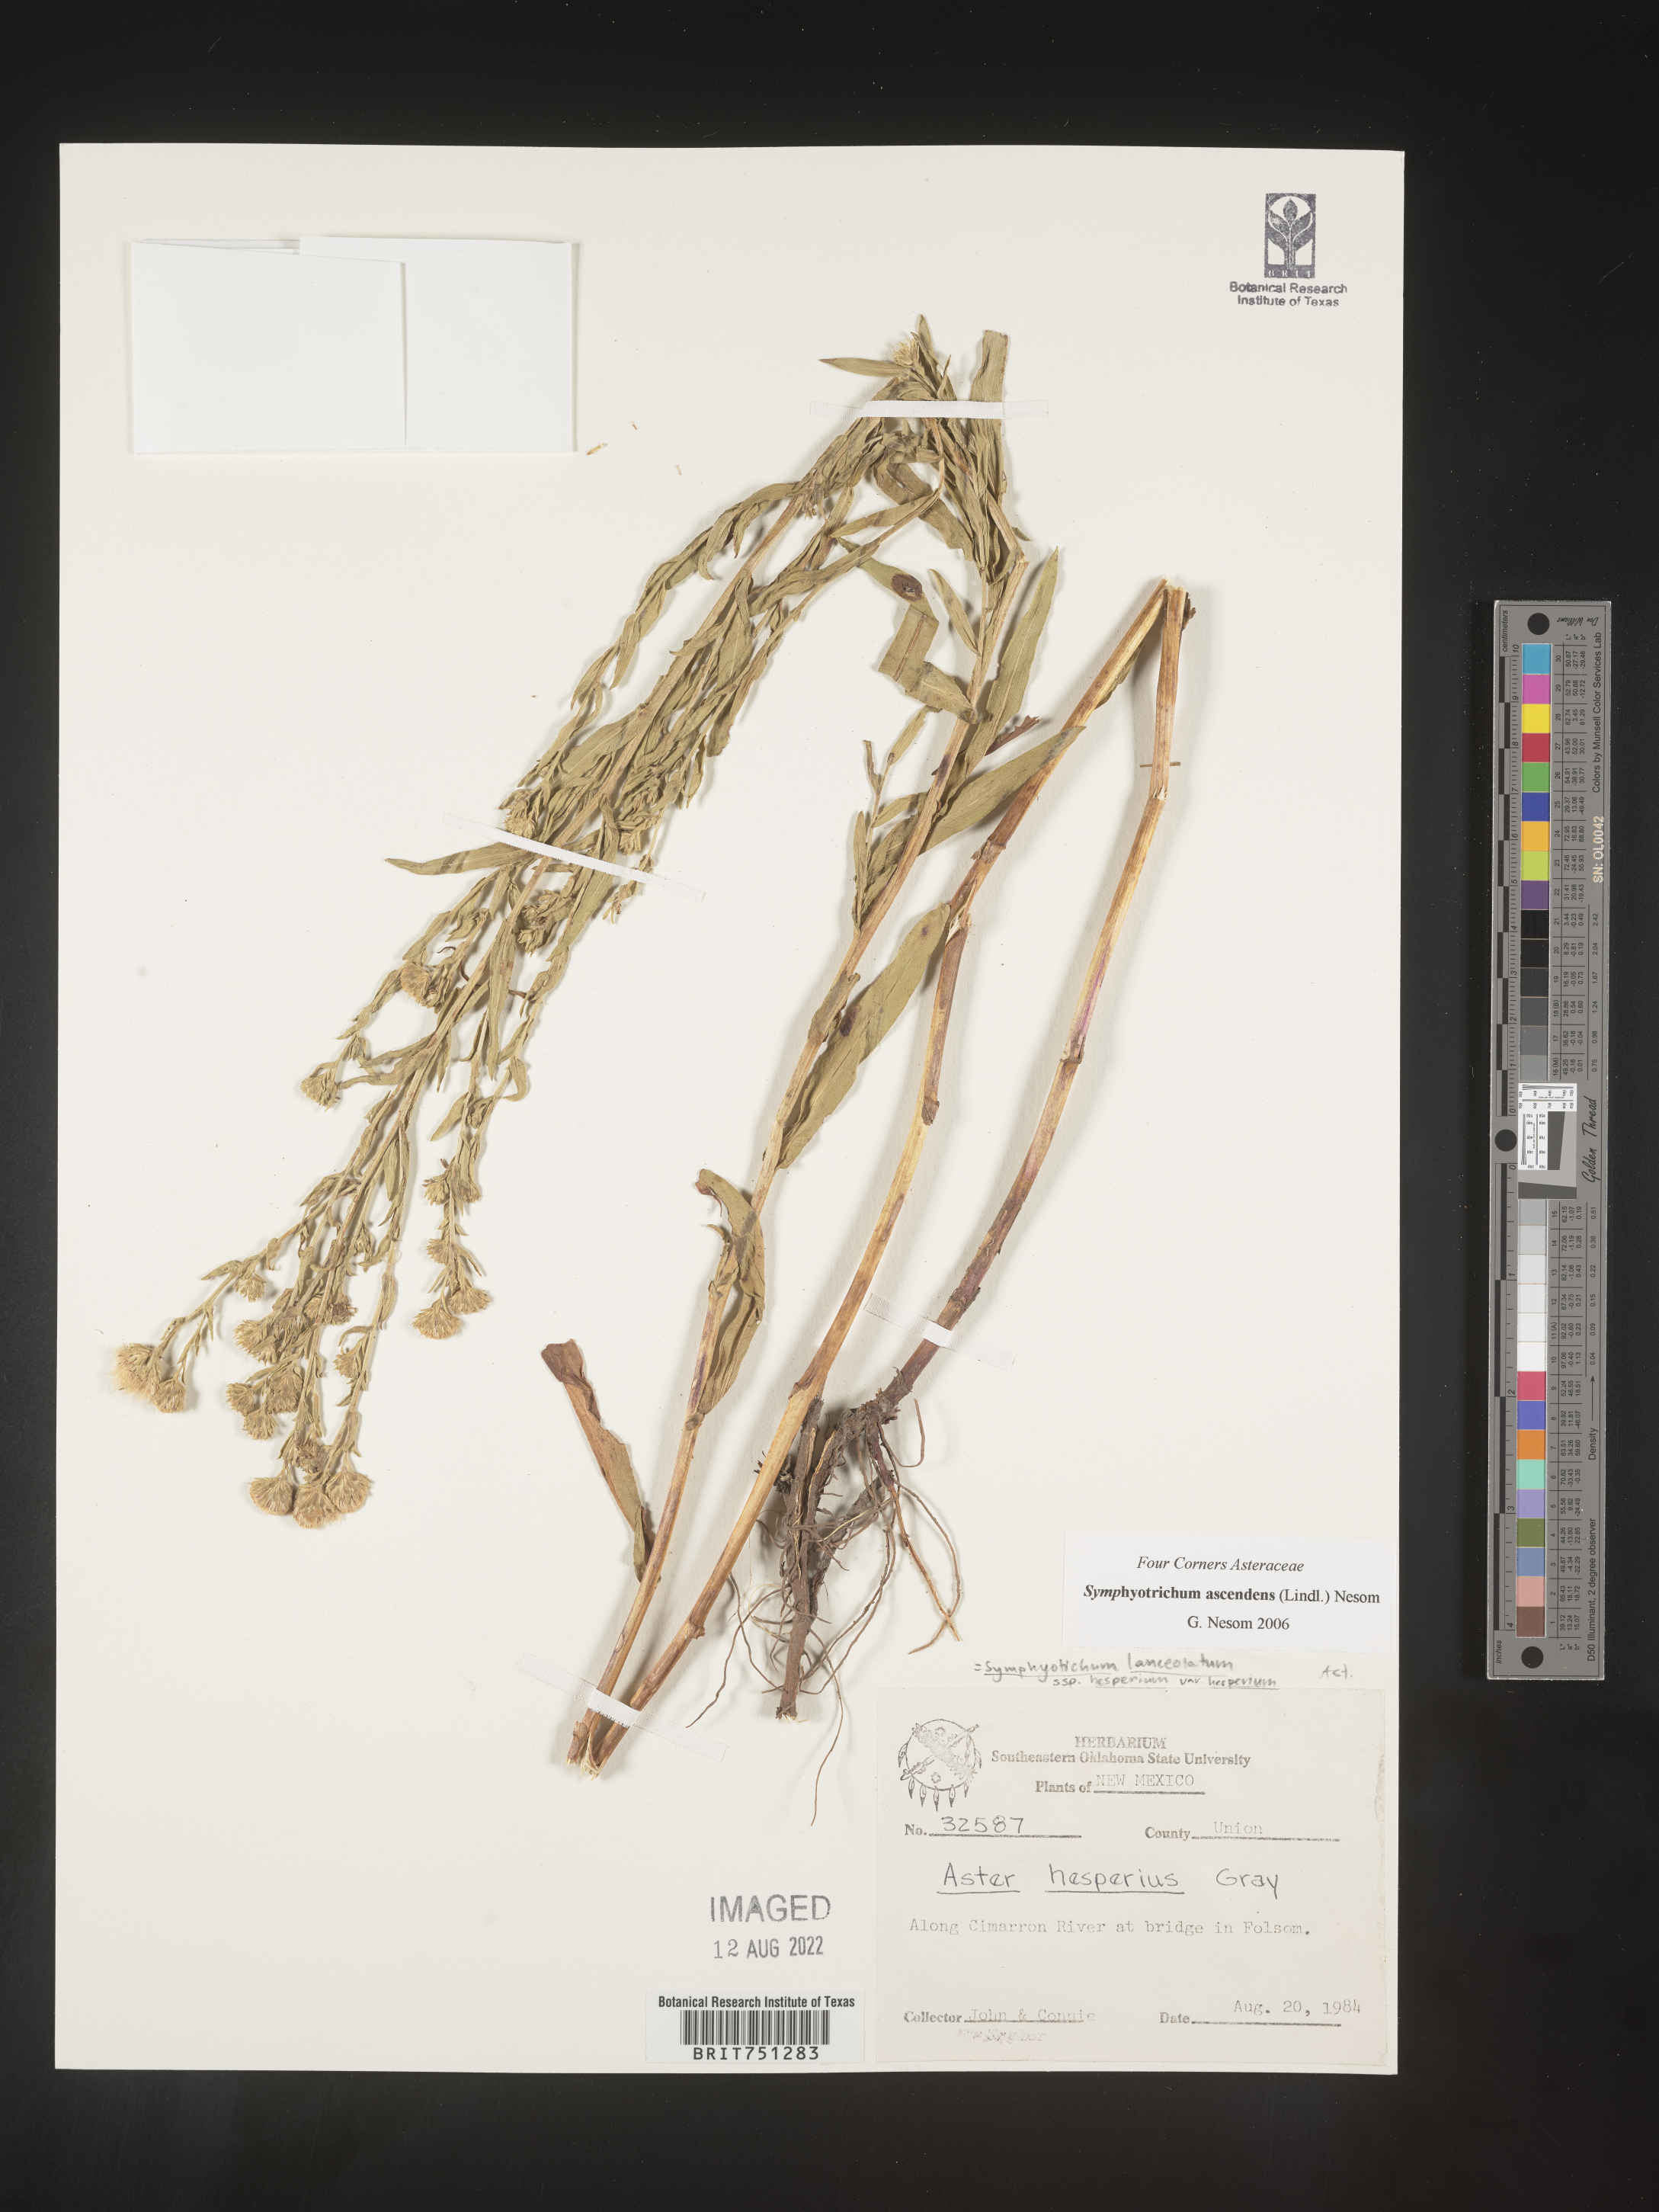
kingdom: Plantae
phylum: Tracheophyta
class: Magnoliopsida
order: Asterales
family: Asteraceae
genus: Symphyotrichum
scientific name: Symphyotrichum ascendens
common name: Intermountain aster
